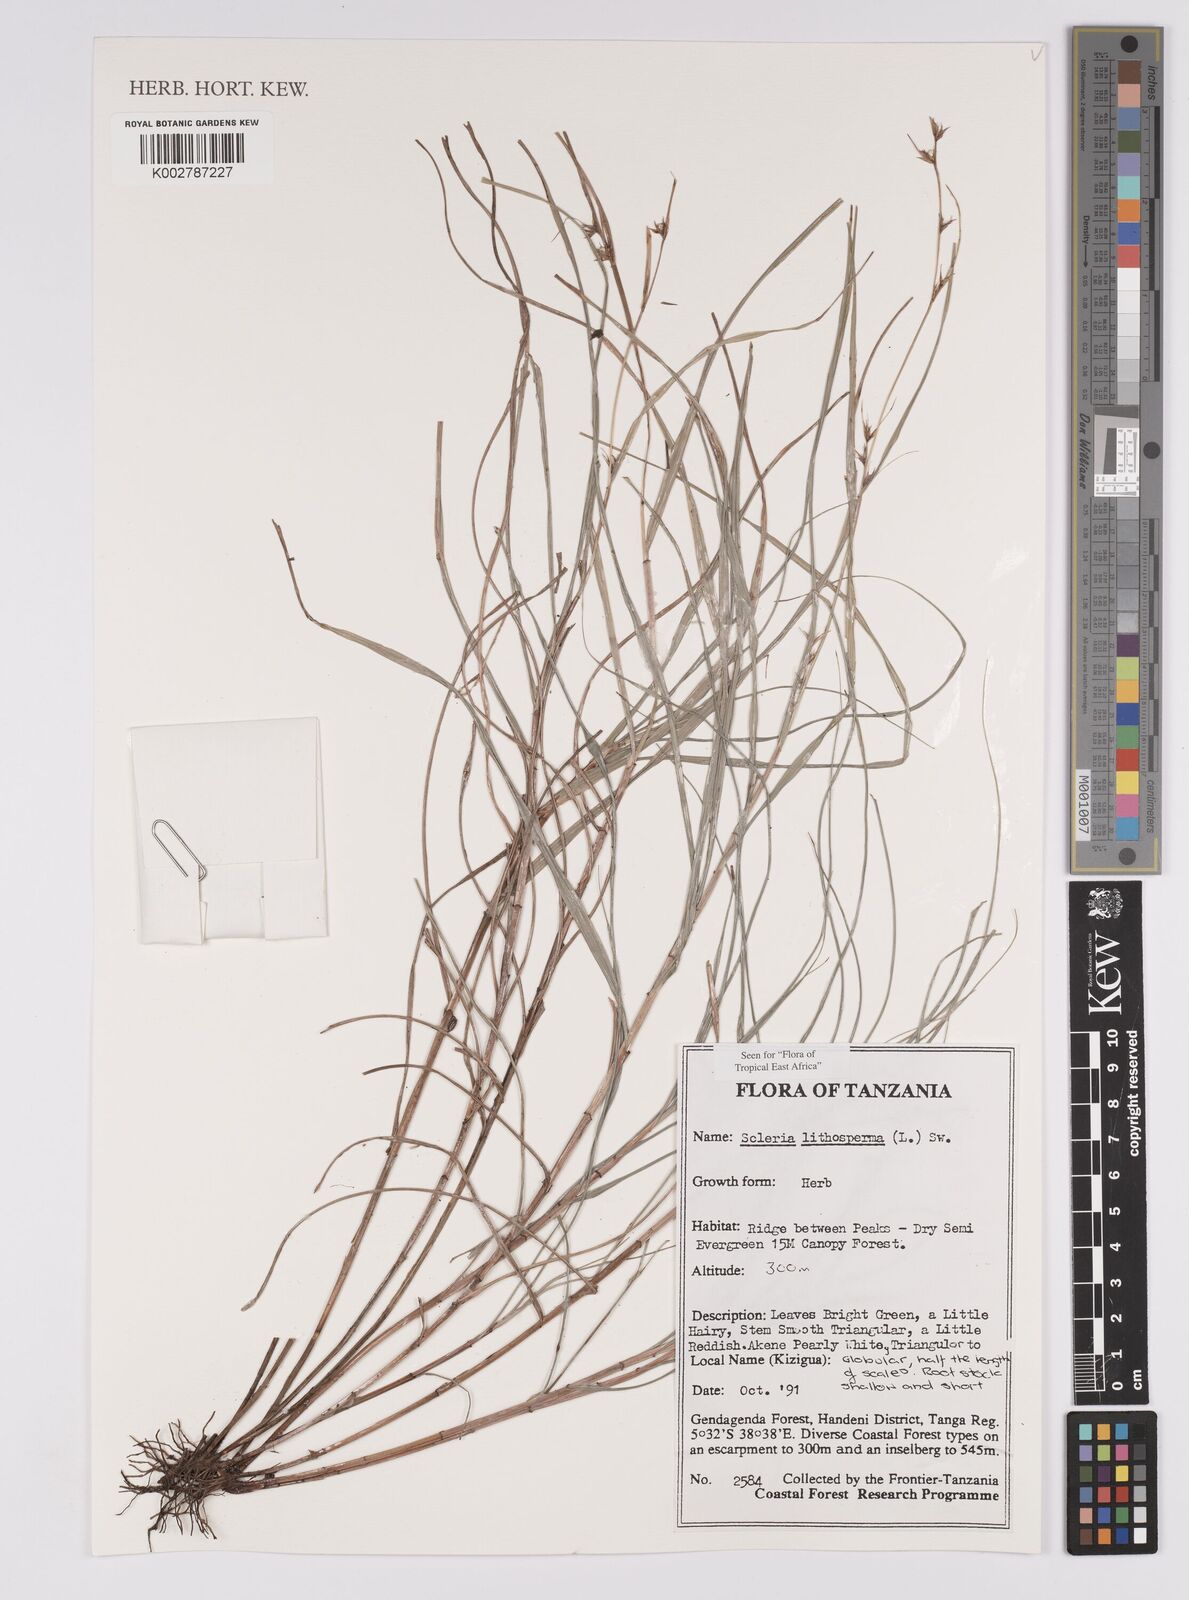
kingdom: Plantae
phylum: Tracheophyta
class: Liliopsida
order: Poales
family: Cyperaceae
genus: Scleria
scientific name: Scleria lithosperma
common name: Florida keys nut-rush
